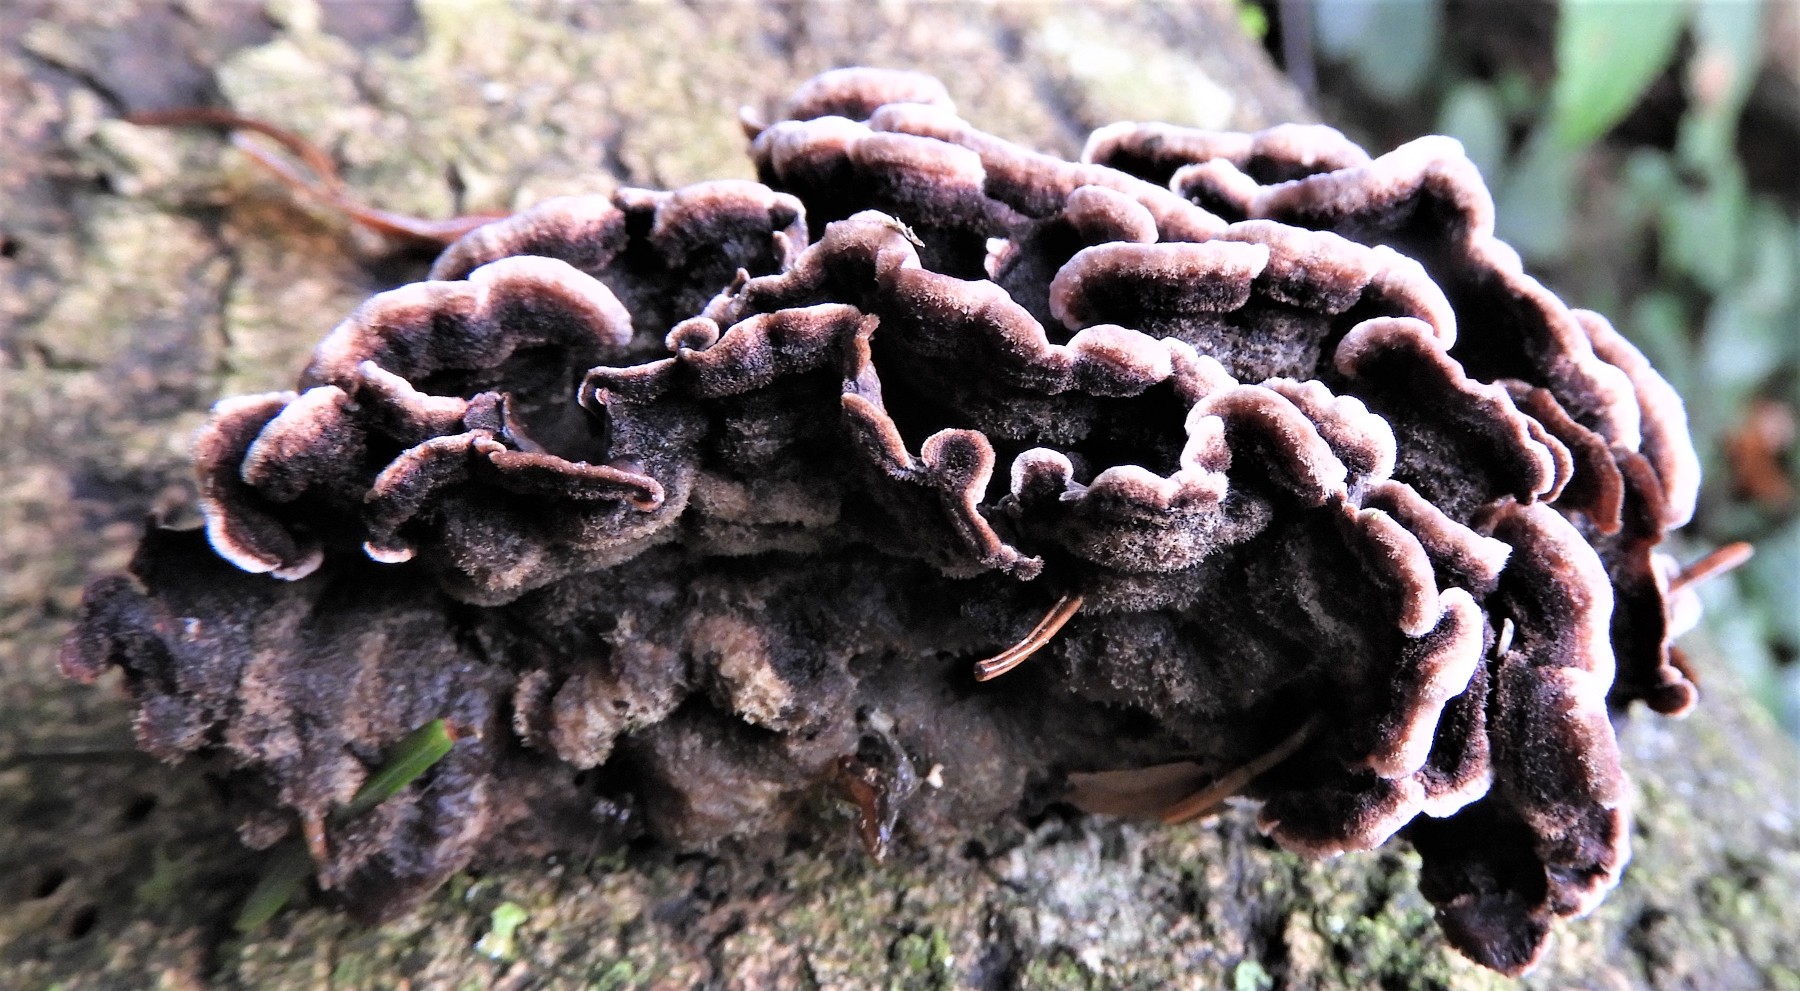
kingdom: Fungi
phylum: Basidiomycota
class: Agaricomycetes
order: Agaricales
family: Cyphellaceae
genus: Chondrostereum
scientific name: Chondrostereum purpureum
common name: purpurlædersvamp
